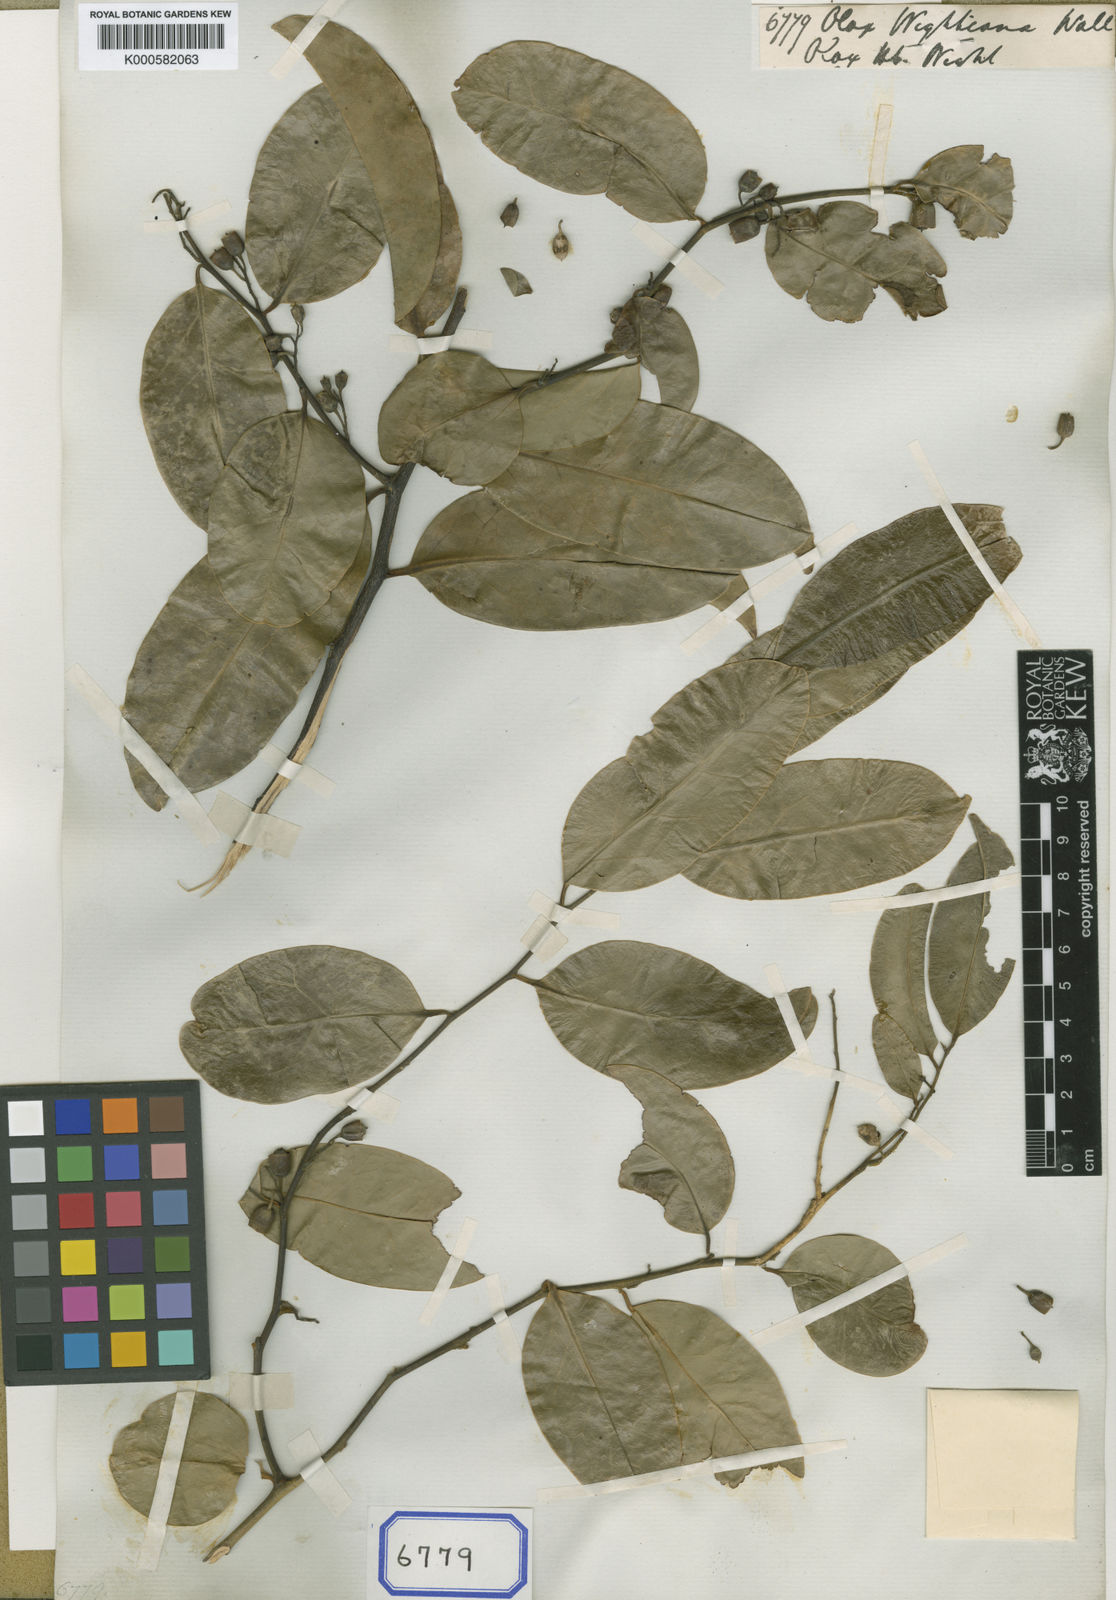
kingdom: Plantae
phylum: Tracheophyta
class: Magnoliopsida
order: Santalales
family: Olacaceae
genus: Olax
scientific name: Olax imbricata
